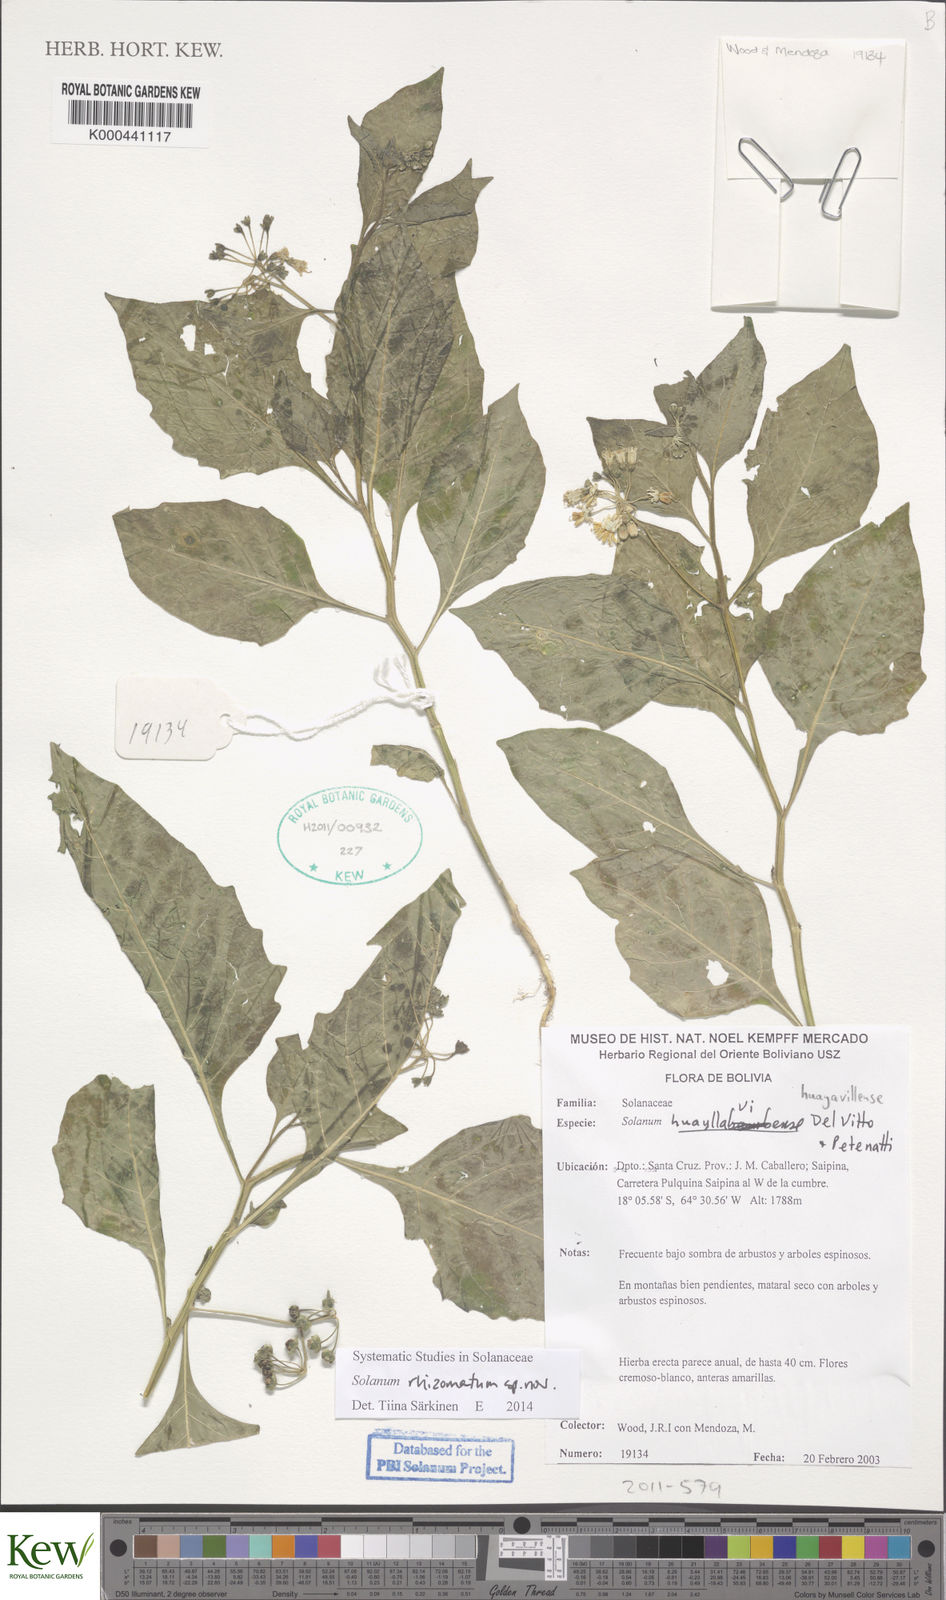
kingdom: Plantae
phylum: Tracheophyta
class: Magnoliopsida
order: Solanales
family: Solanaceae
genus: Solanum
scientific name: Solanum
